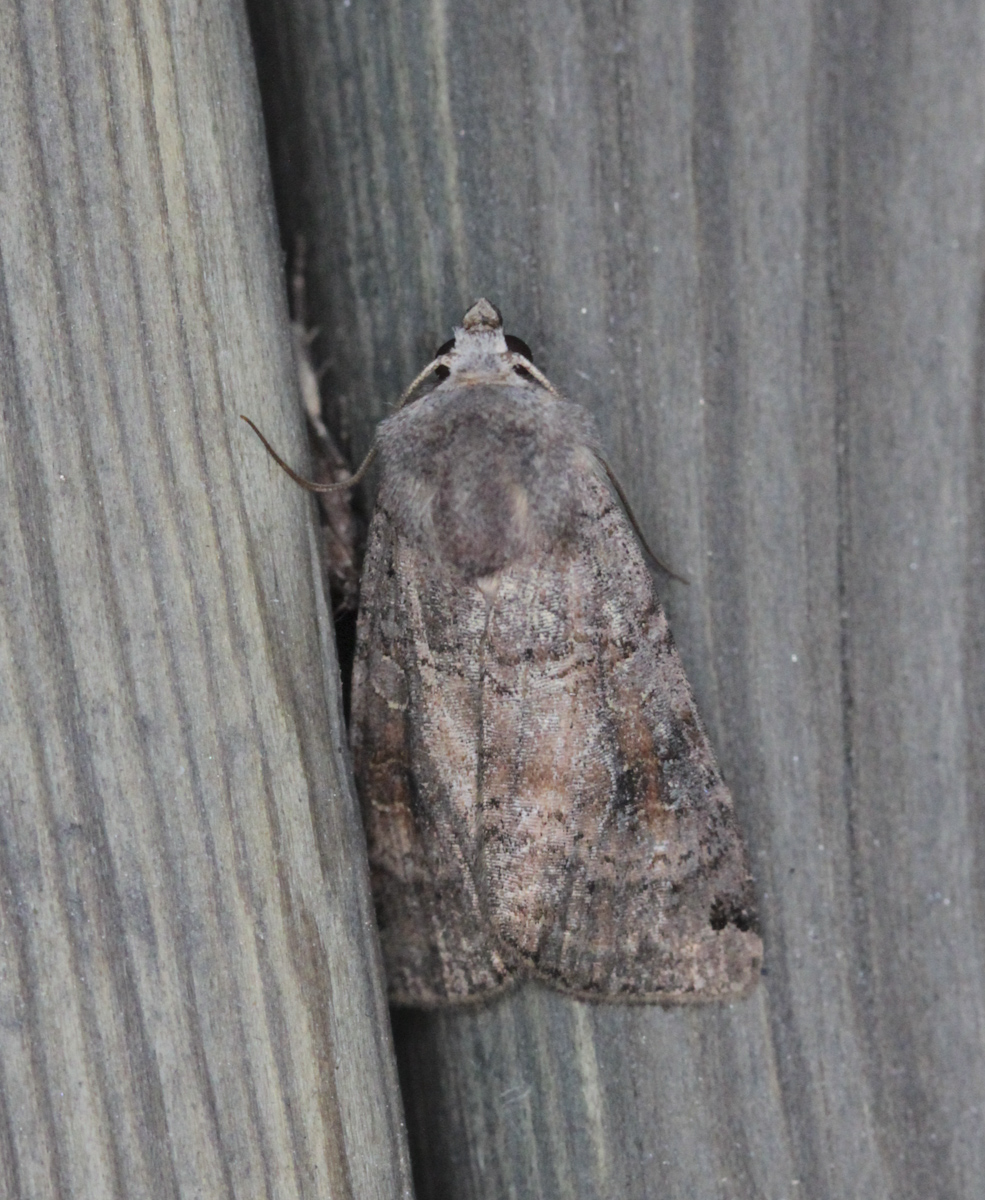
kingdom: Animalia
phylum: Arthropoda
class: Insecta
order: Lepidoptera
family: Noctuidae
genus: Xestia
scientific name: Xestia baja
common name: Dotted clay
